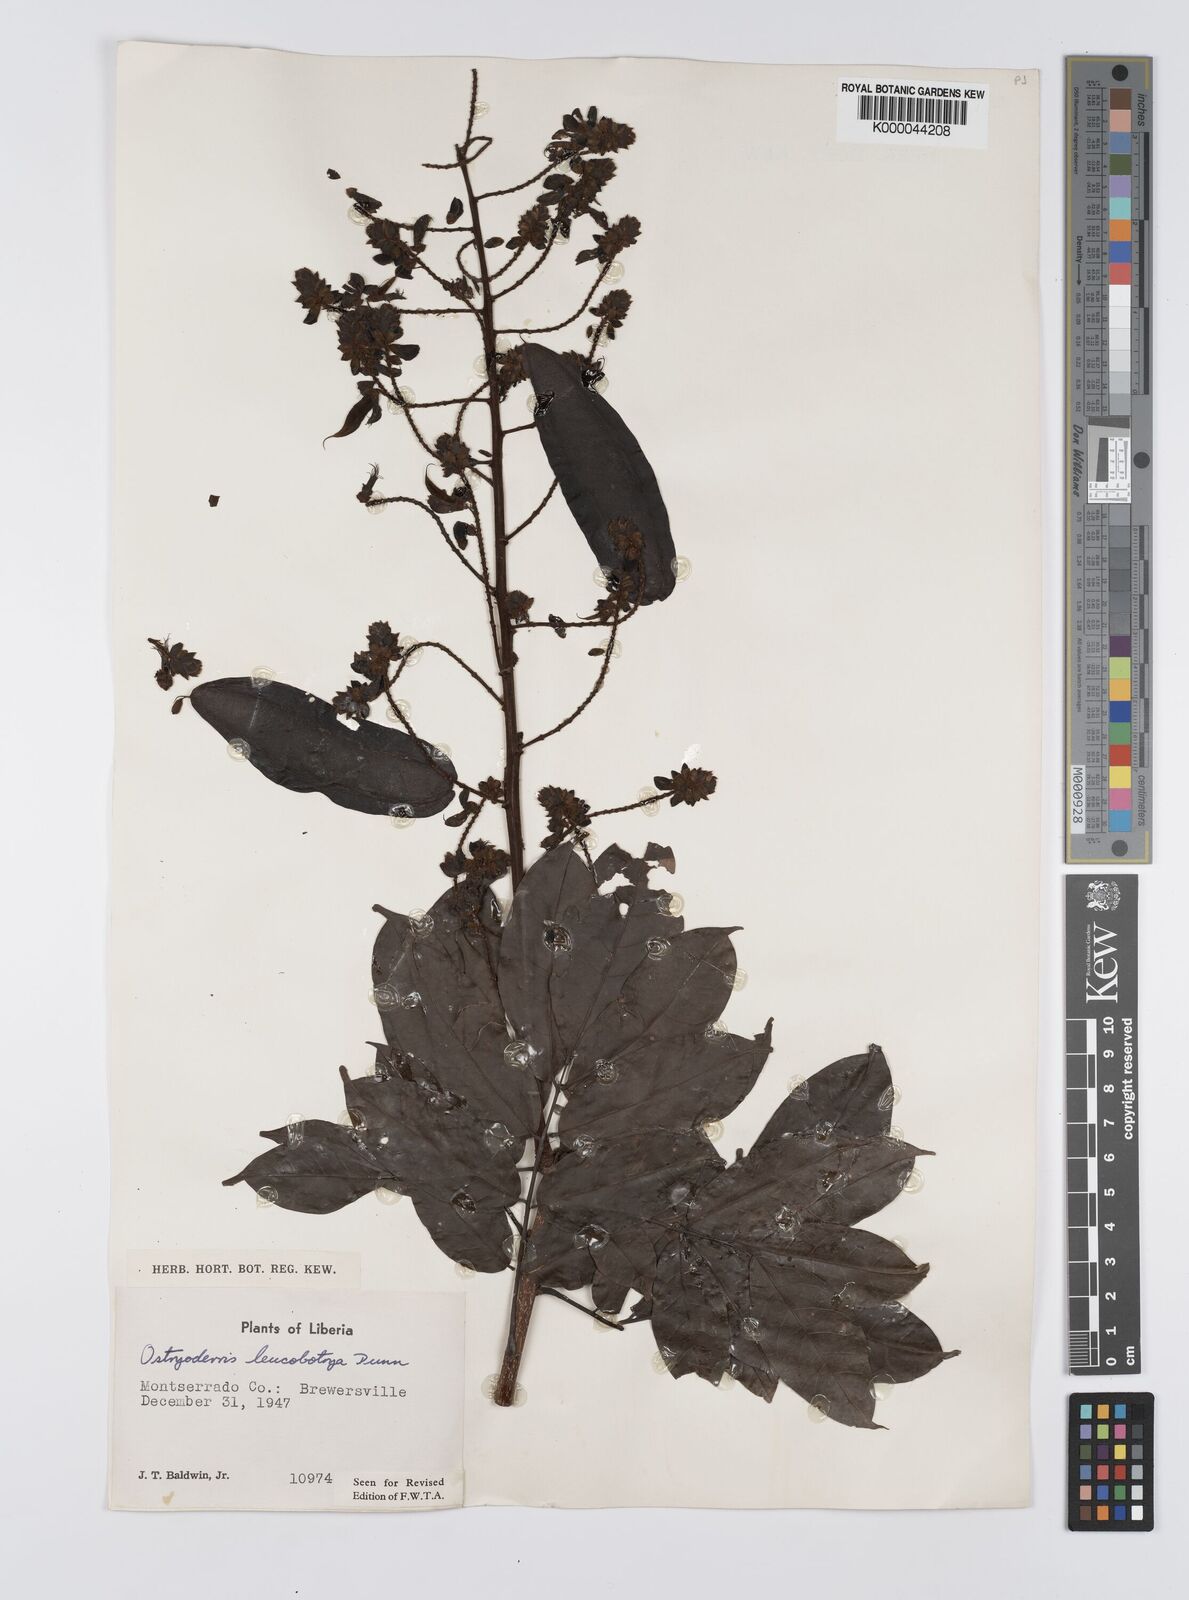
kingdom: Plantae
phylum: Tracheophyta
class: Magnoliopsida
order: Fabales
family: Fabaceae
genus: Aganope
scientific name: Aganope leucobotrya
